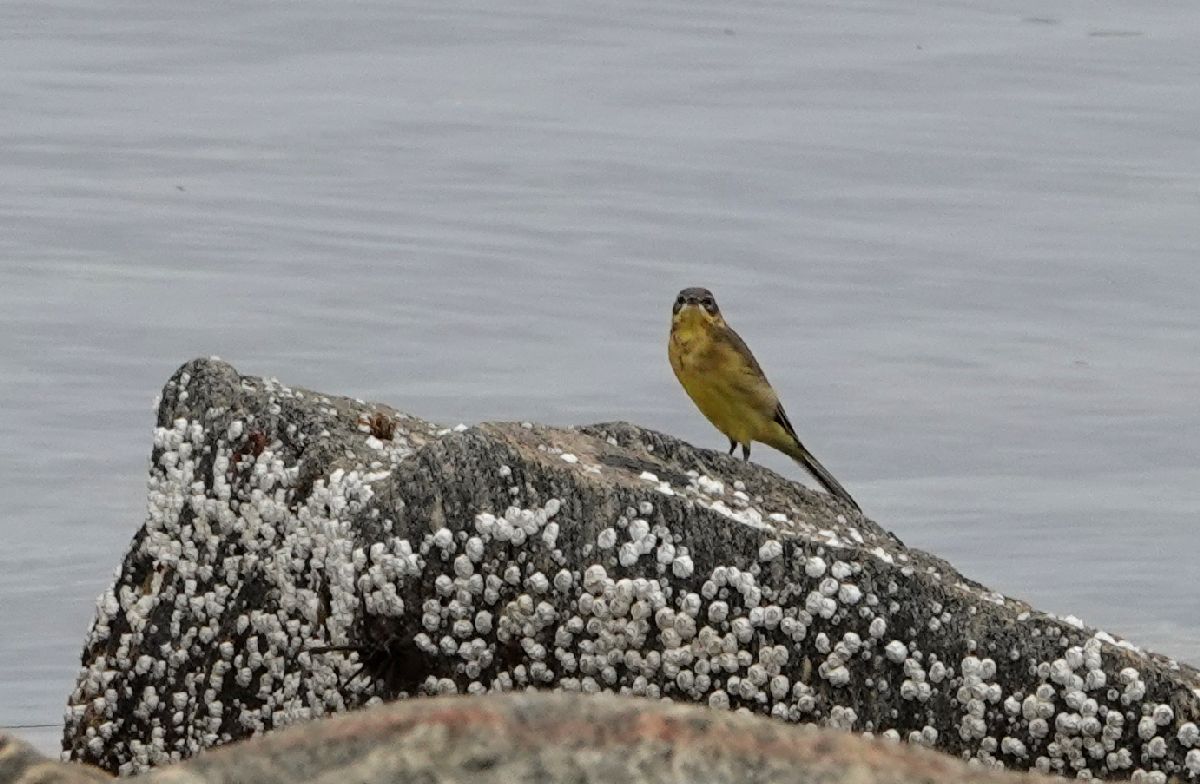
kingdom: Animalia
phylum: Chordata
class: Aves
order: Passeriformes
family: Motacillidae
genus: Motacilla
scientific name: Motacilla flava
